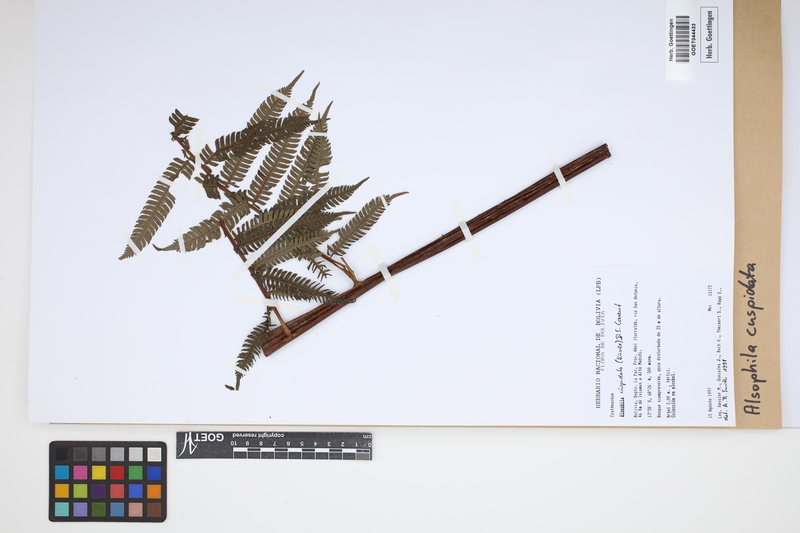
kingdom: Plantae
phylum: Tracheophyta
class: Polypodiopsida
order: Cyatheales
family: Cyatheaceae
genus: Alsophila
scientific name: Alsophila cuspidata
